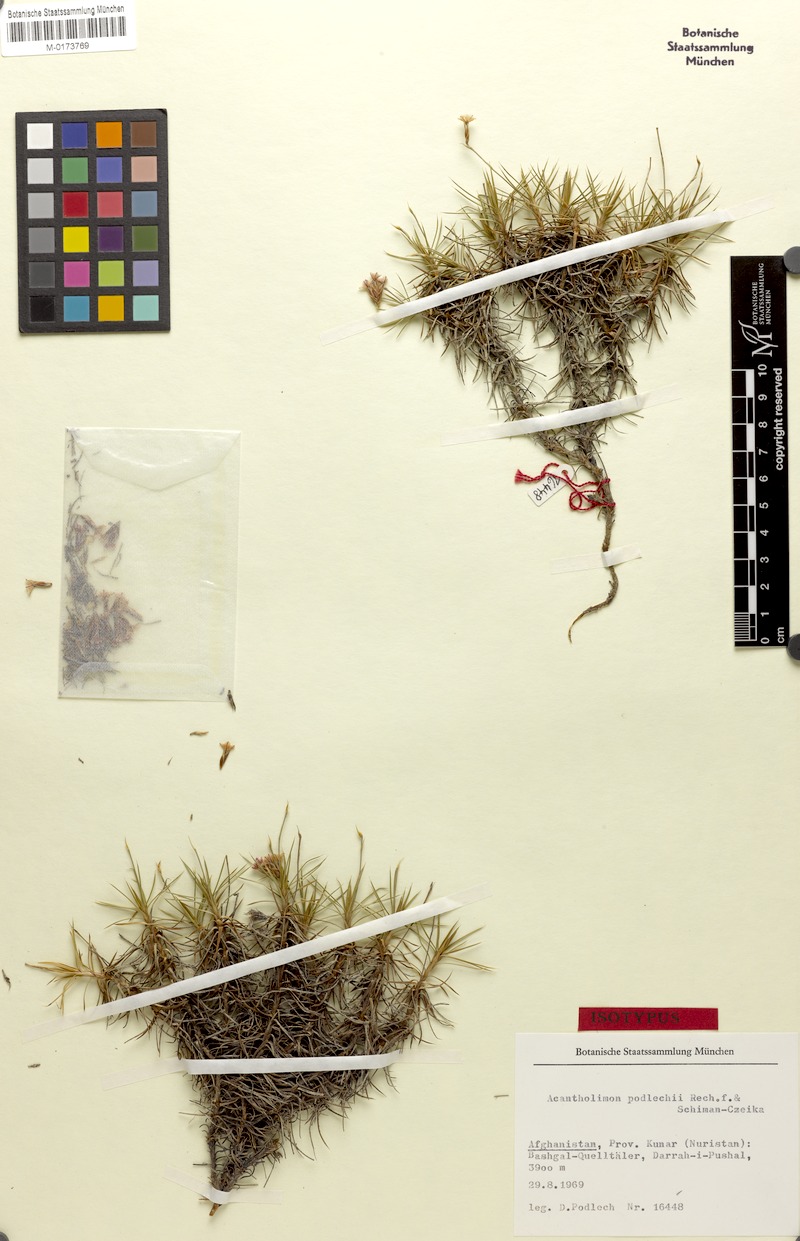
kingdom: Plantae
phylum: Tracheophyta
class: Magnoliopsida
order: Caryophyllales
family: Plumbaginaceae
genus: Acantholimon
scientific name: Acantholimon podlechii
